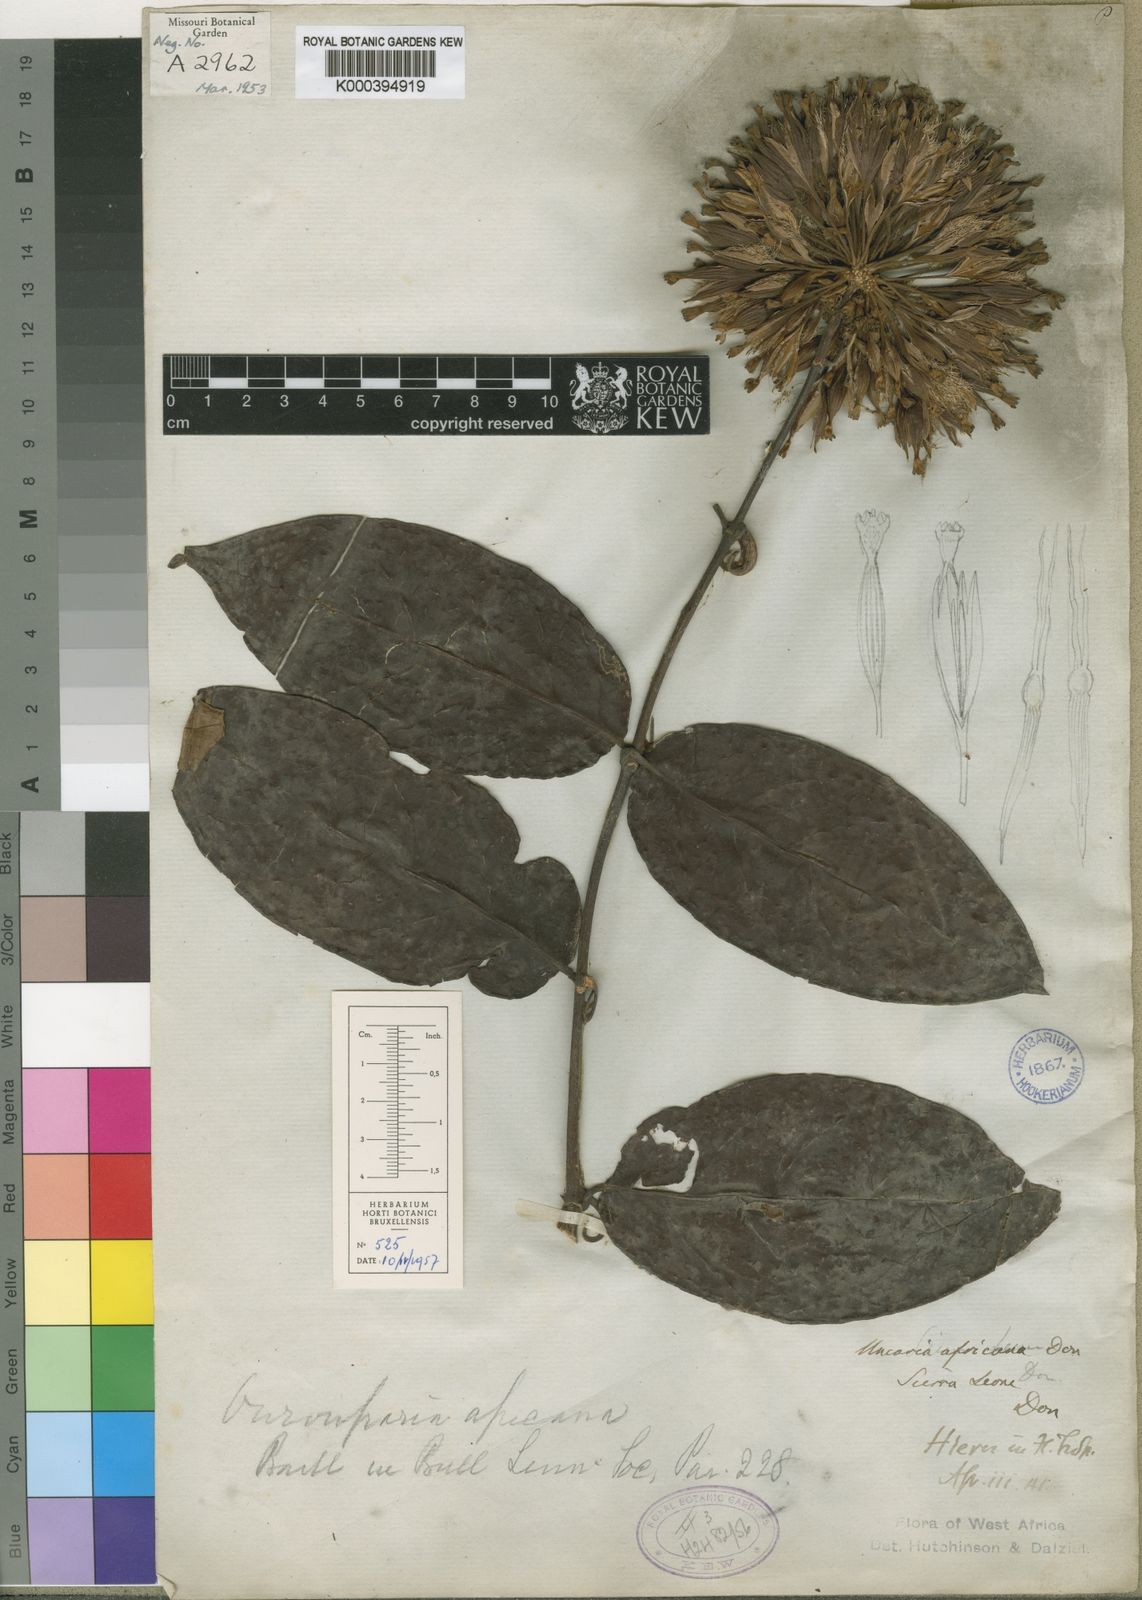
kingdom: Plantae
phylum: Tracheophyta
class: Magnoliopsida
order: Gentianales
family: Rubiaceae
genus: Uncaria
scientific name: Uncaria africana
